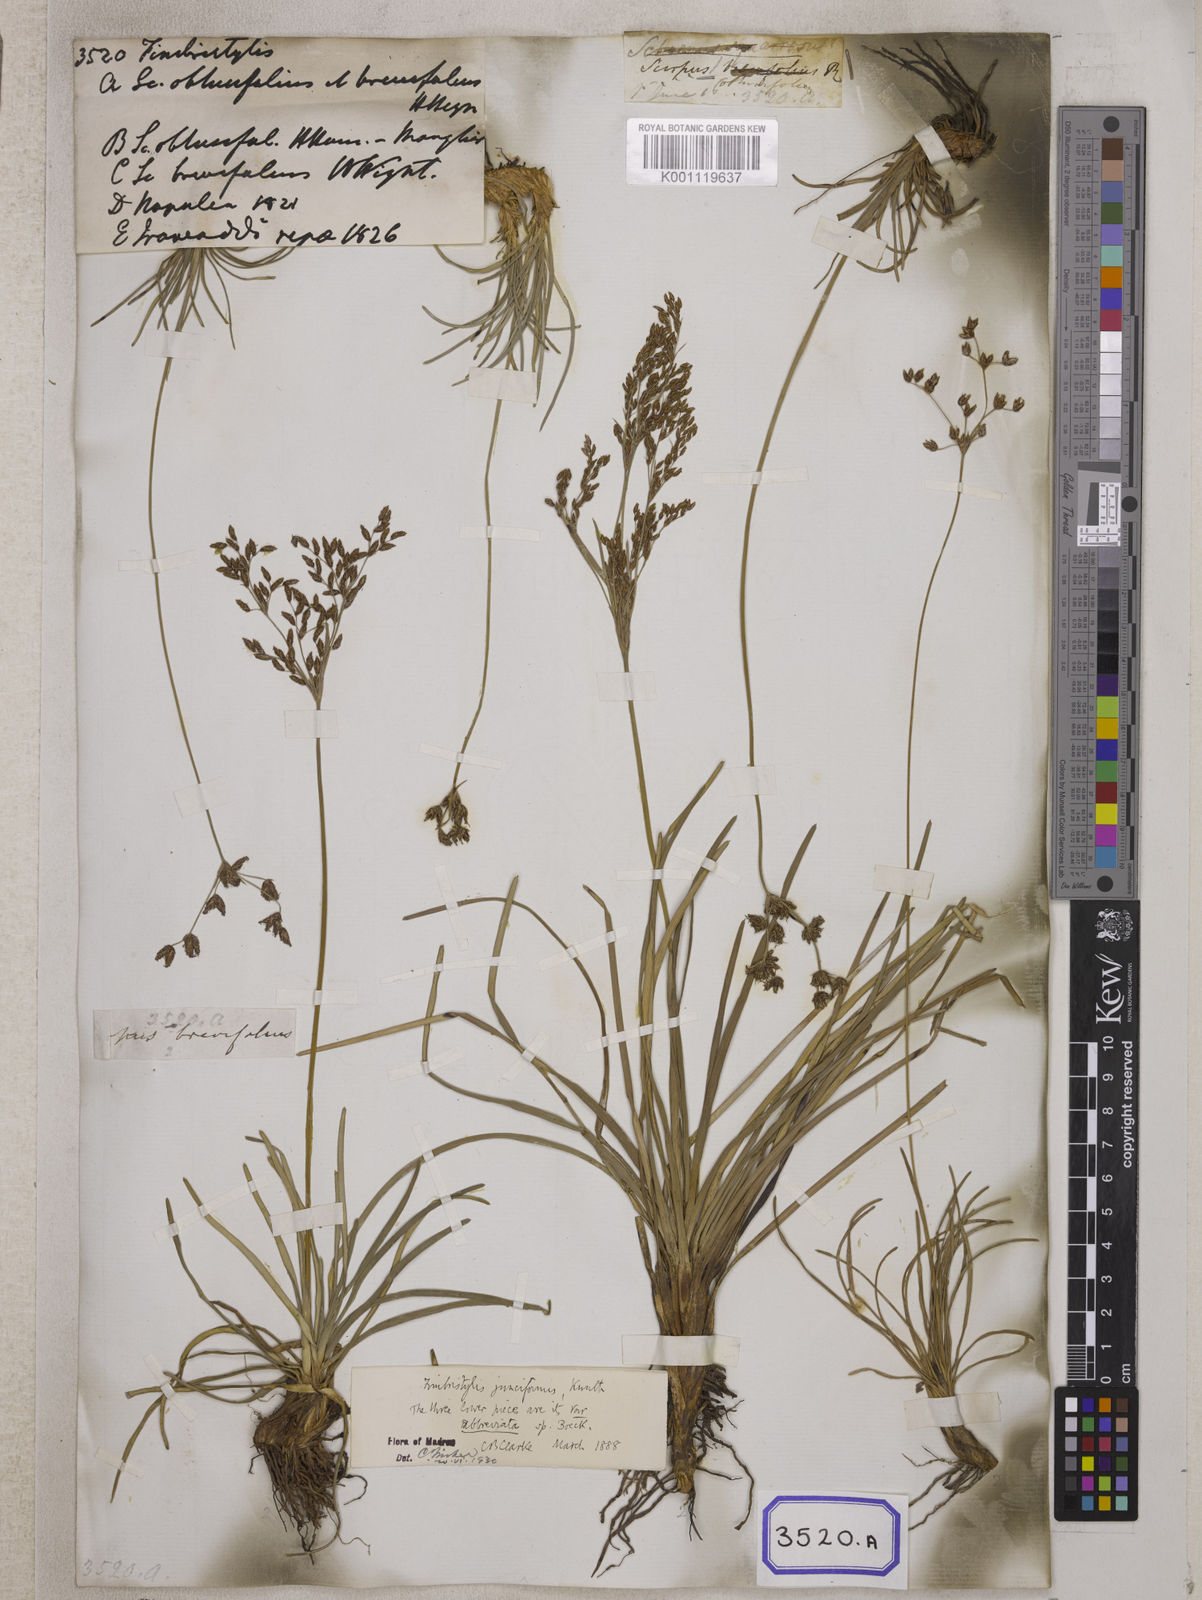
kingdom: Plantae
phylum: Tracheophyta
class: Liliopsida
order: Poales
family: Cyperaceae
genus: Fimbristylis
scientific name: Fimbristylis
